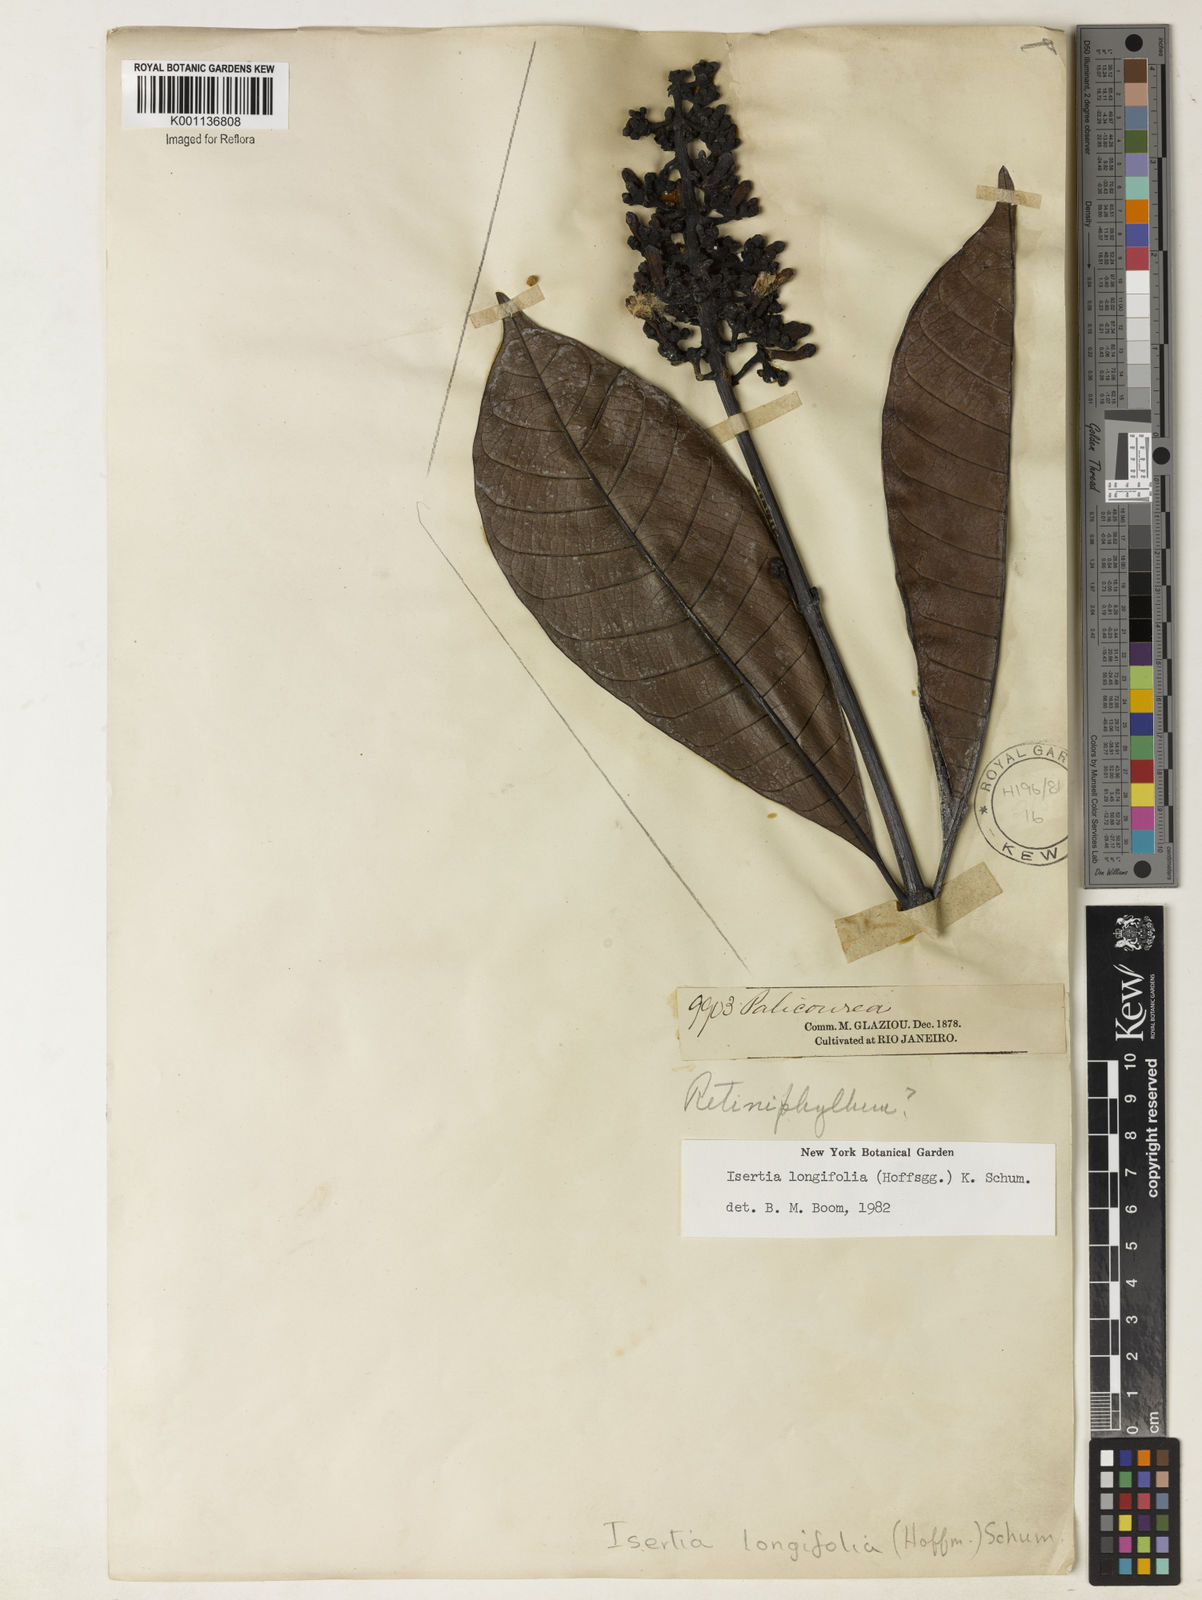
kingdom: Plantae
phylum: Tracheophyta
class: Magnoliopsida
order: Gentianales
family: Rubiaceae
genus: Isertia
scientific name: Isertia longifolia
